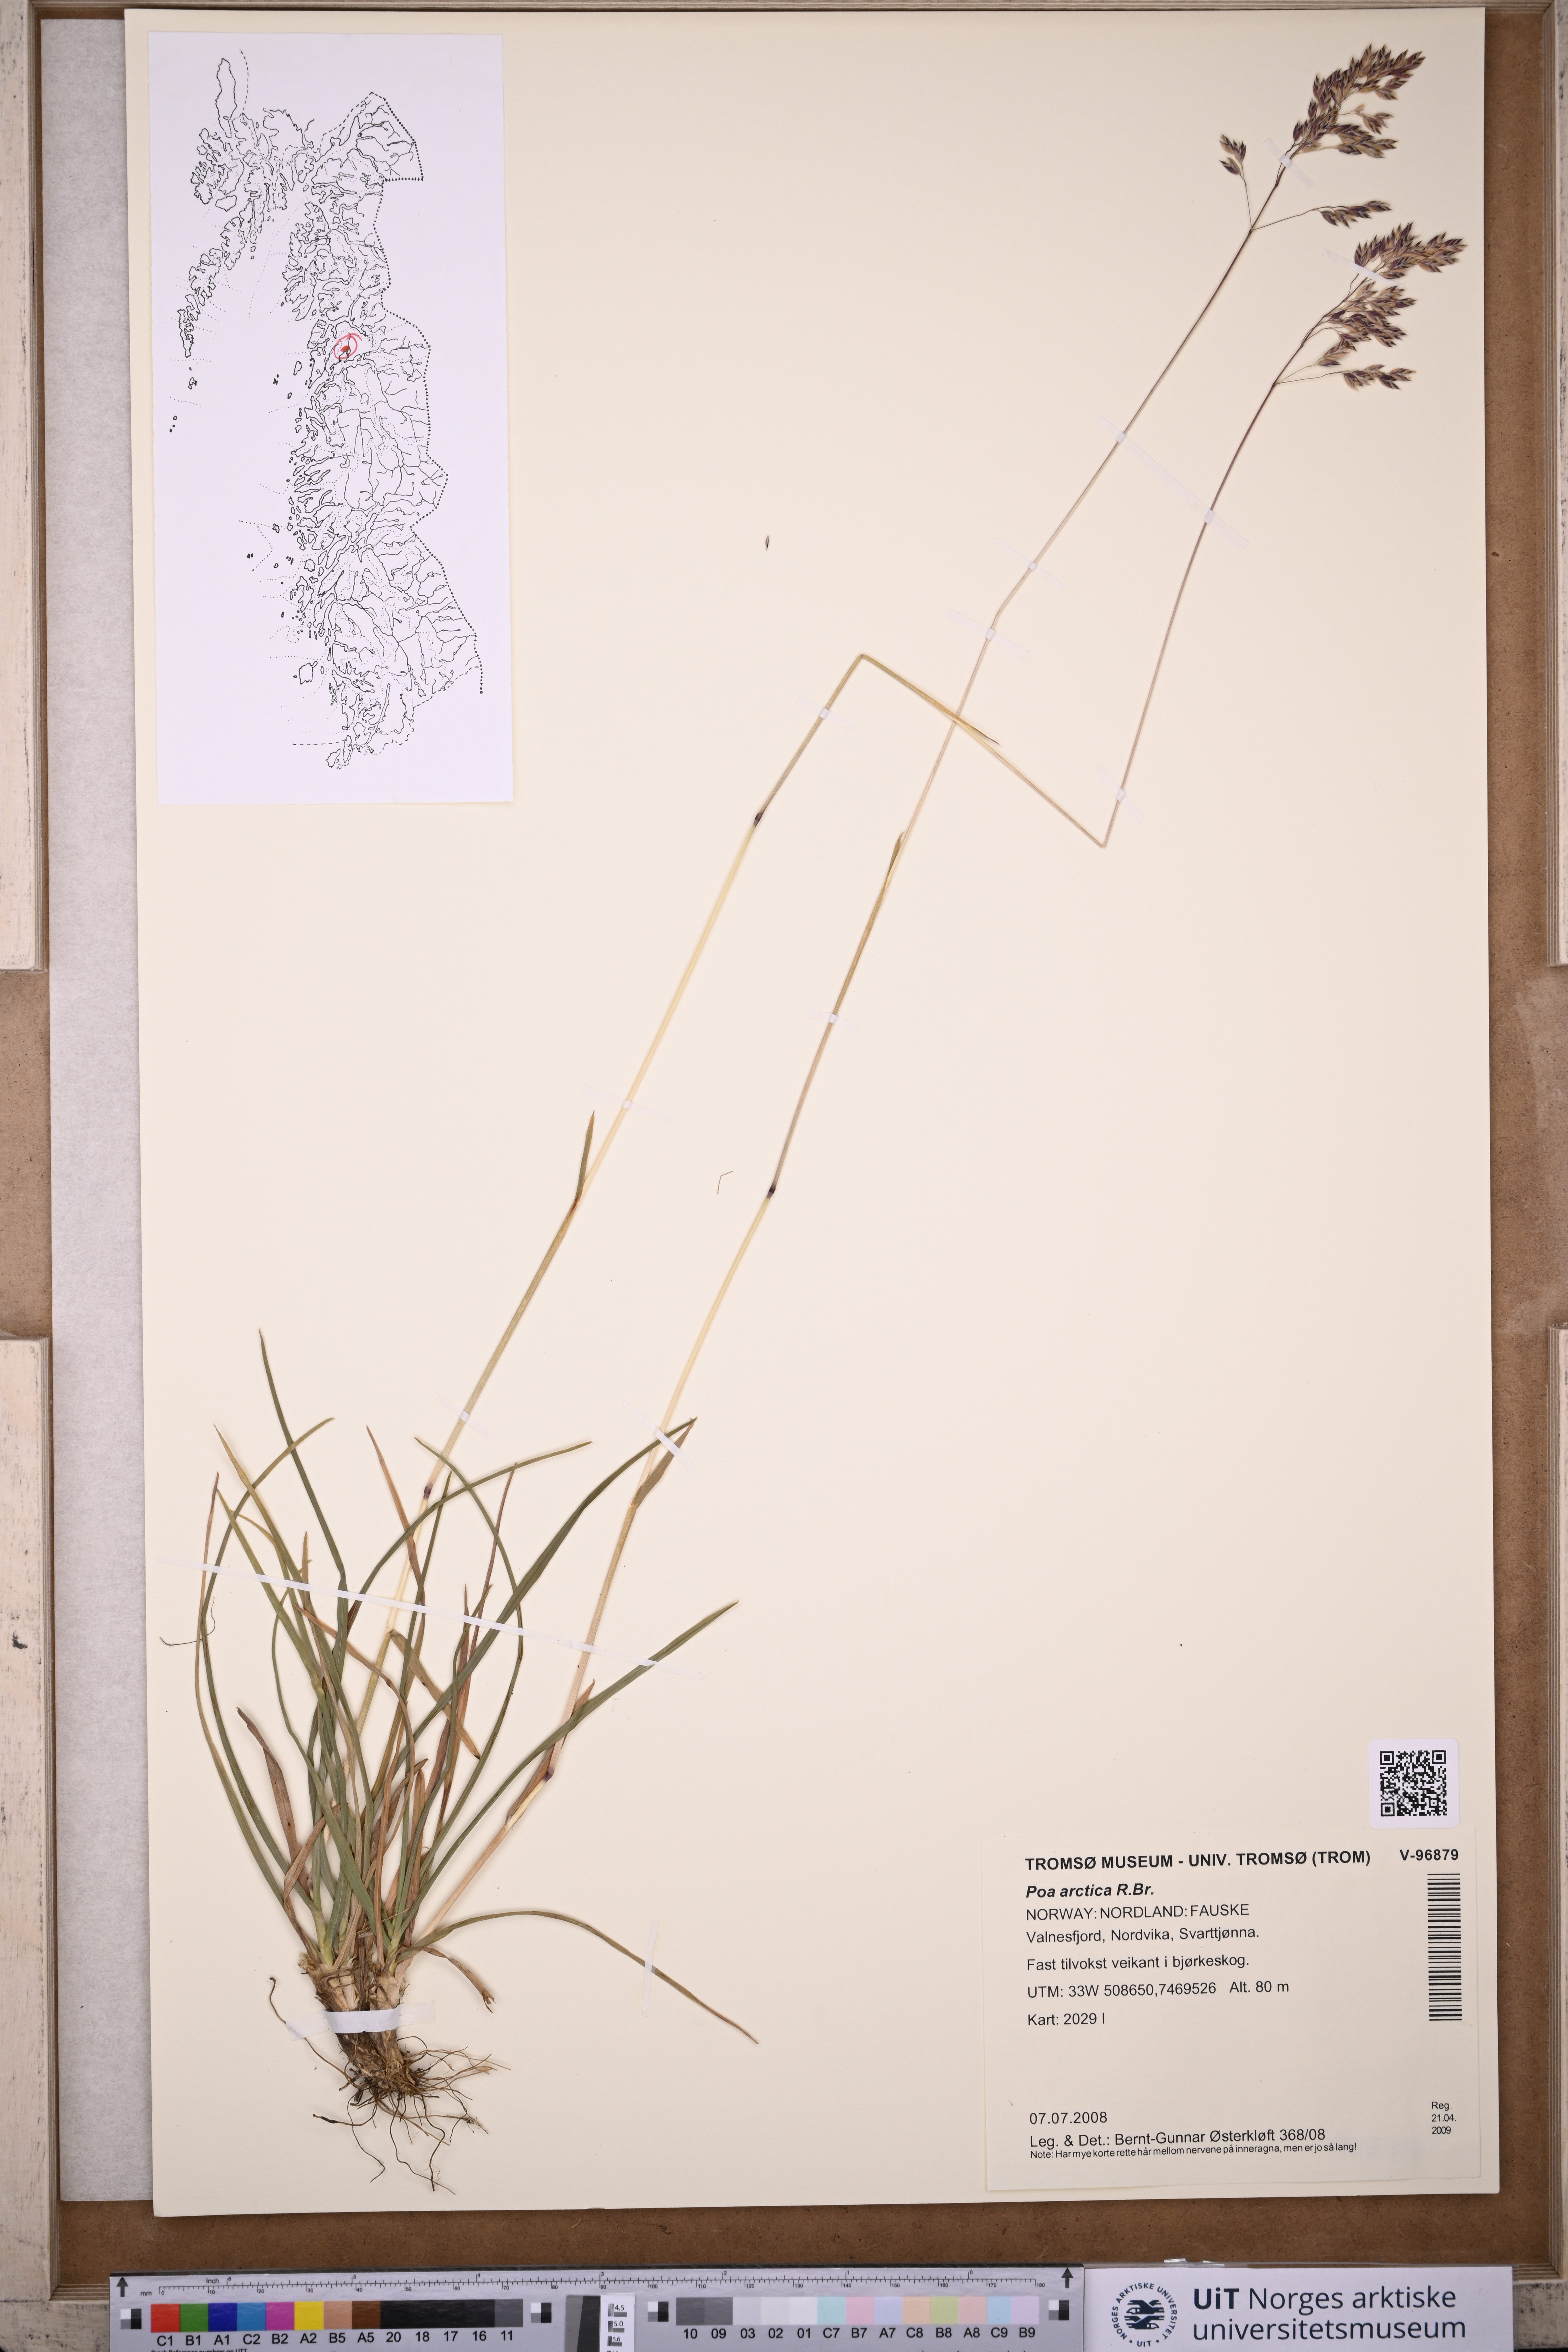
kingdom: Plantae
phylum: Tracheophyta
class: Liliopsida
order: Poales
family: Poaceae
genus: Poa
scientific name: Poa alpina
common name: Alpine bluegrass
